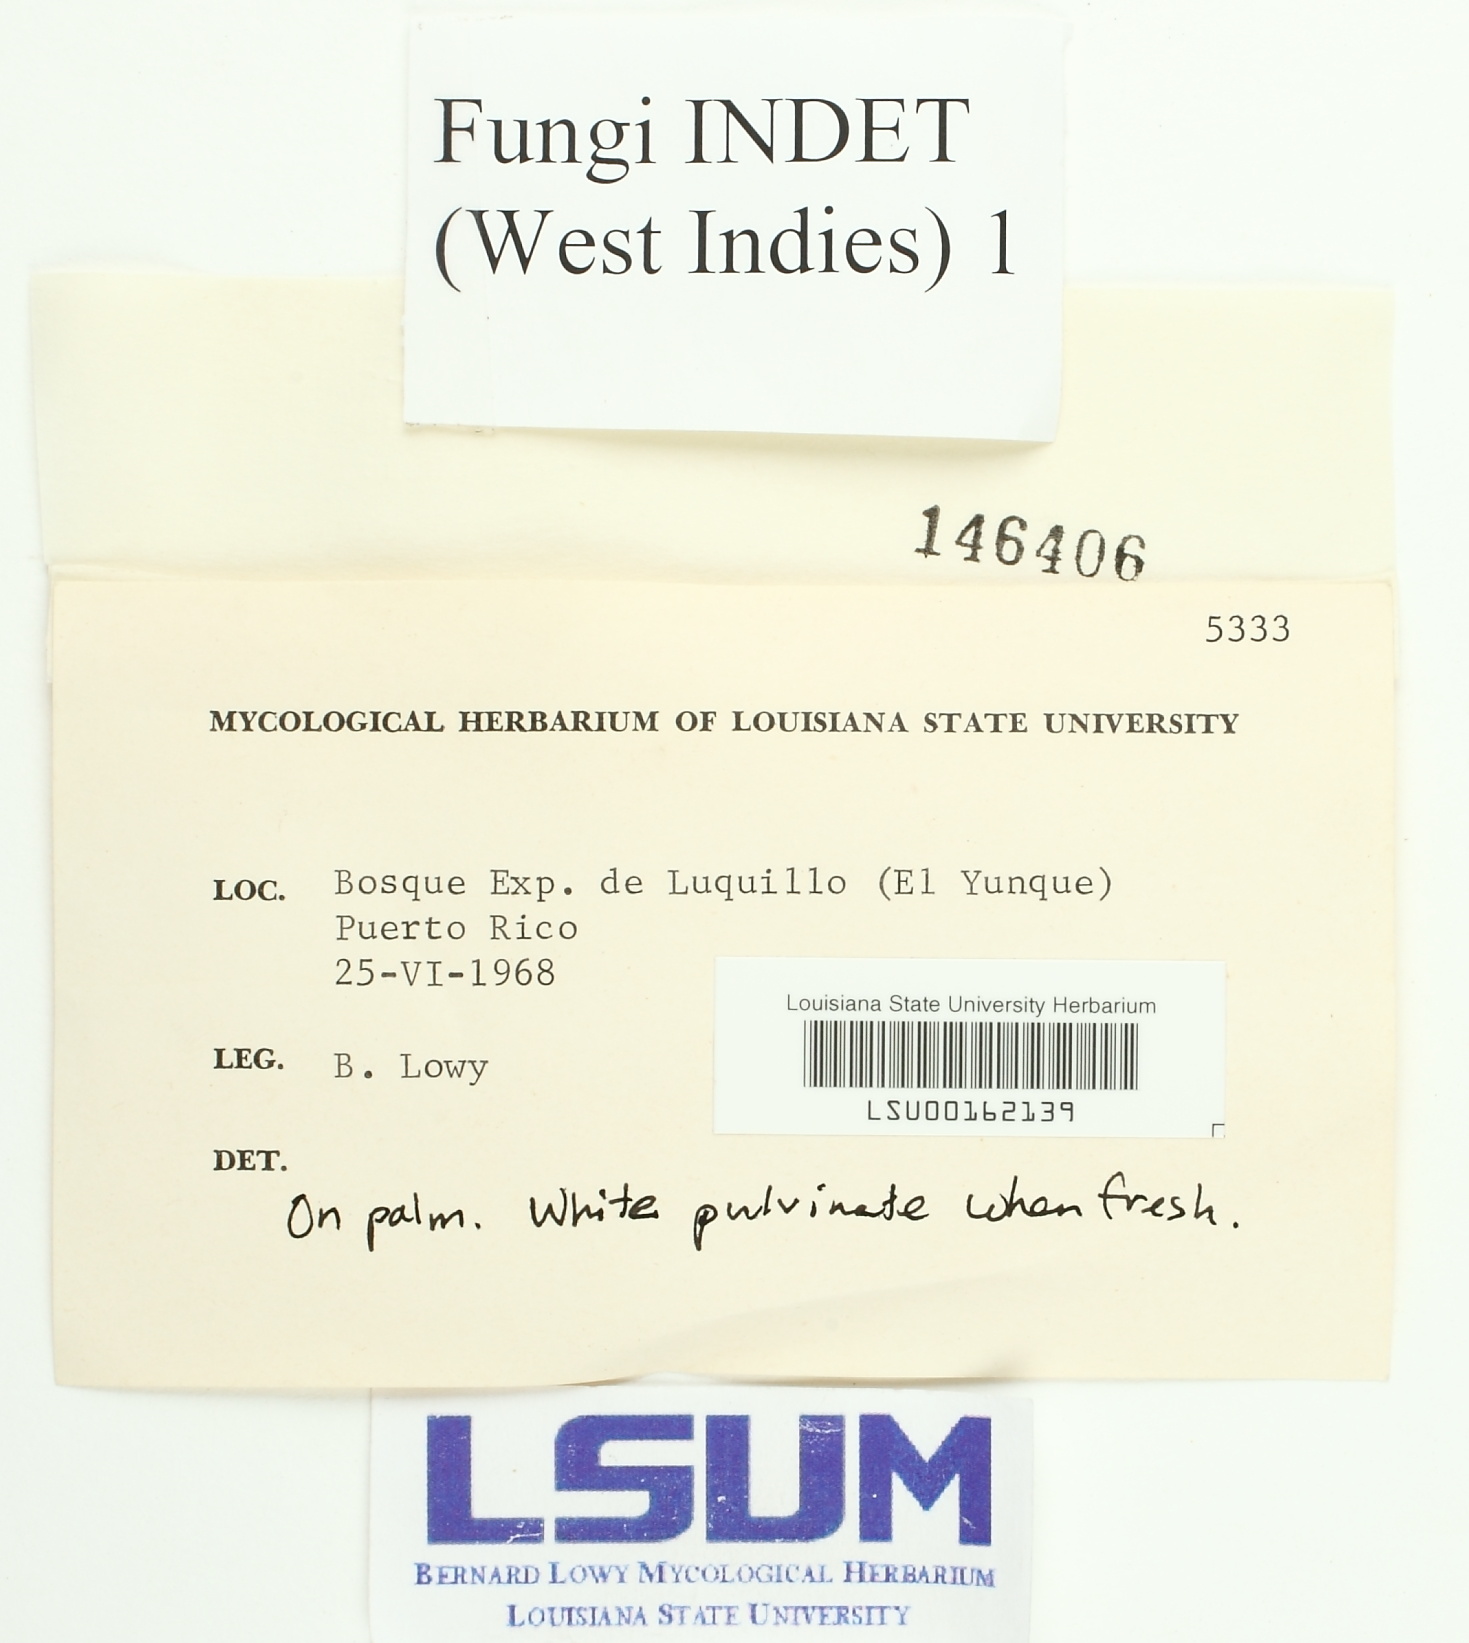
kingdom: Fungi
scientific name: Fungi
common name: Fungi
